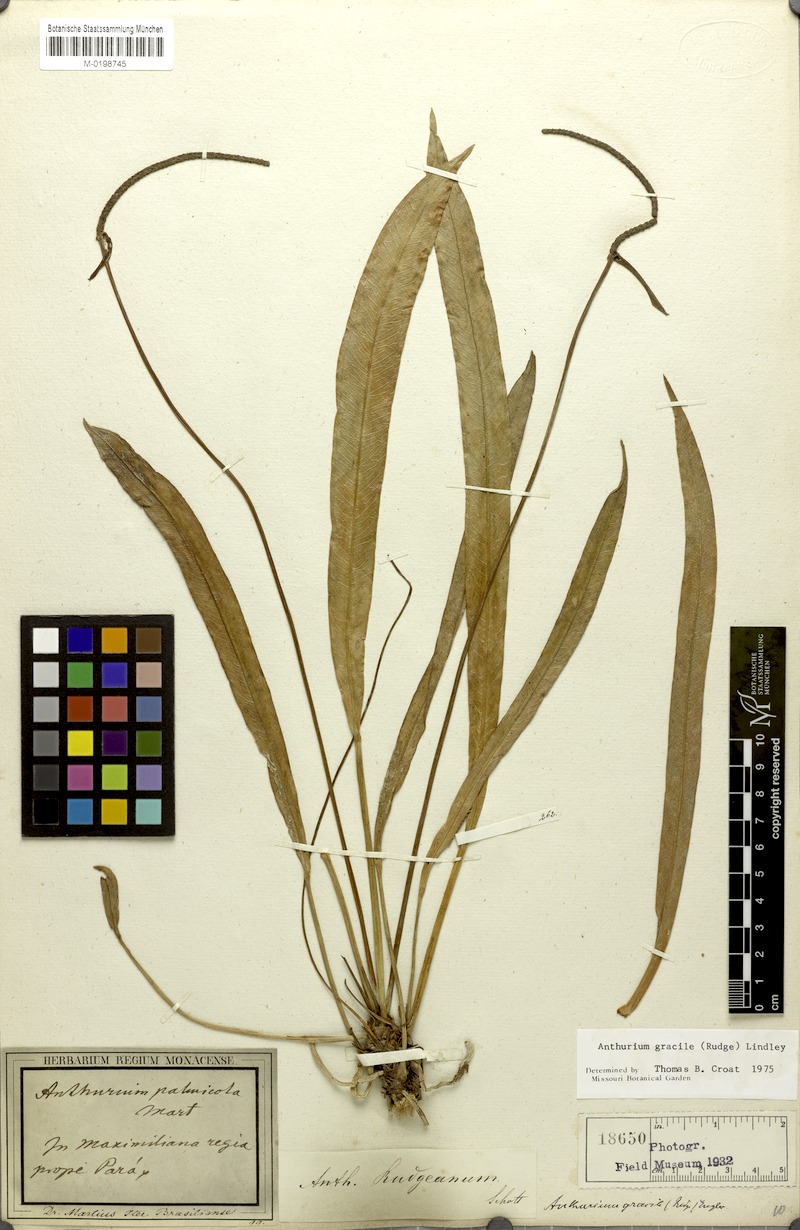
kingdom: Plantae
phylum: Tracheophyta
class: Liliopsida
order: Alismatales
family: Araceae
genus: Anthurium
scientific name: Anthurium gracile
